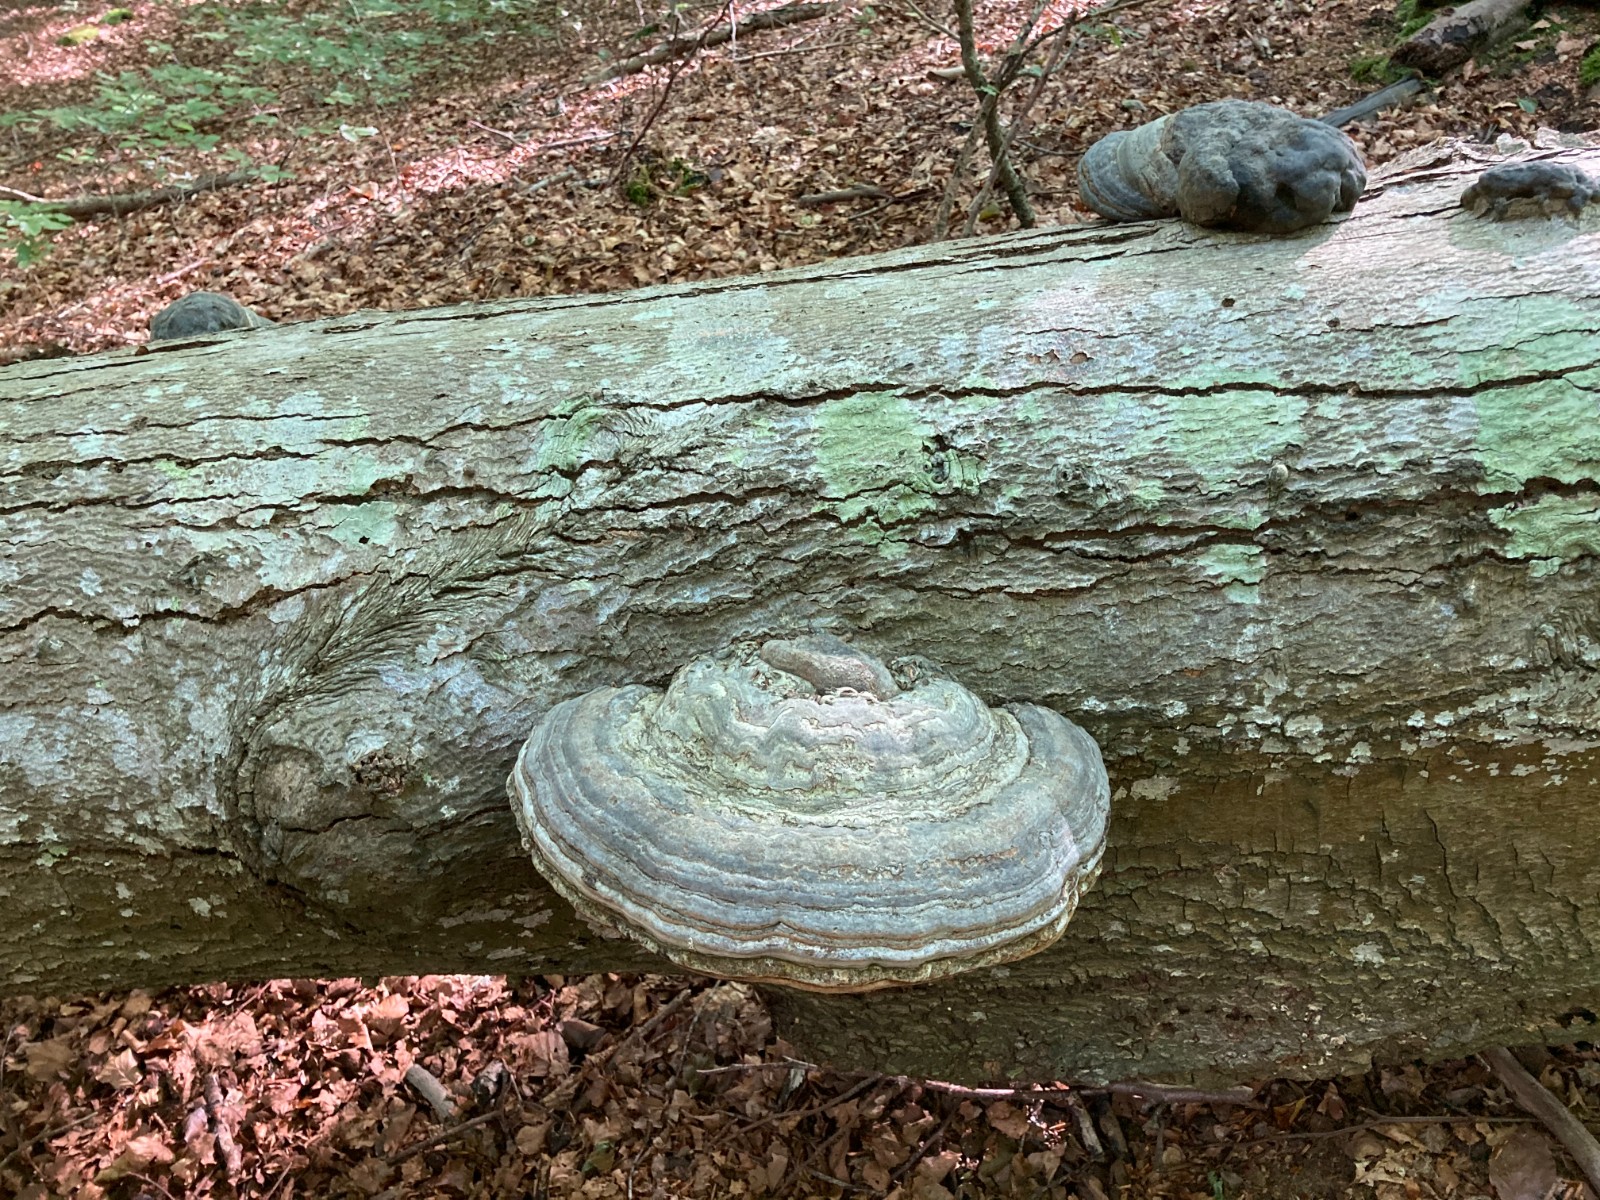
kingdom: Fungi
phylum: Basidiomycota
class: Agaricomycetes
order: Polyporales
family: Polyporaceae
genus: Fomes
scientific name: Fomes fomentarius
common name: tøndersvamp
